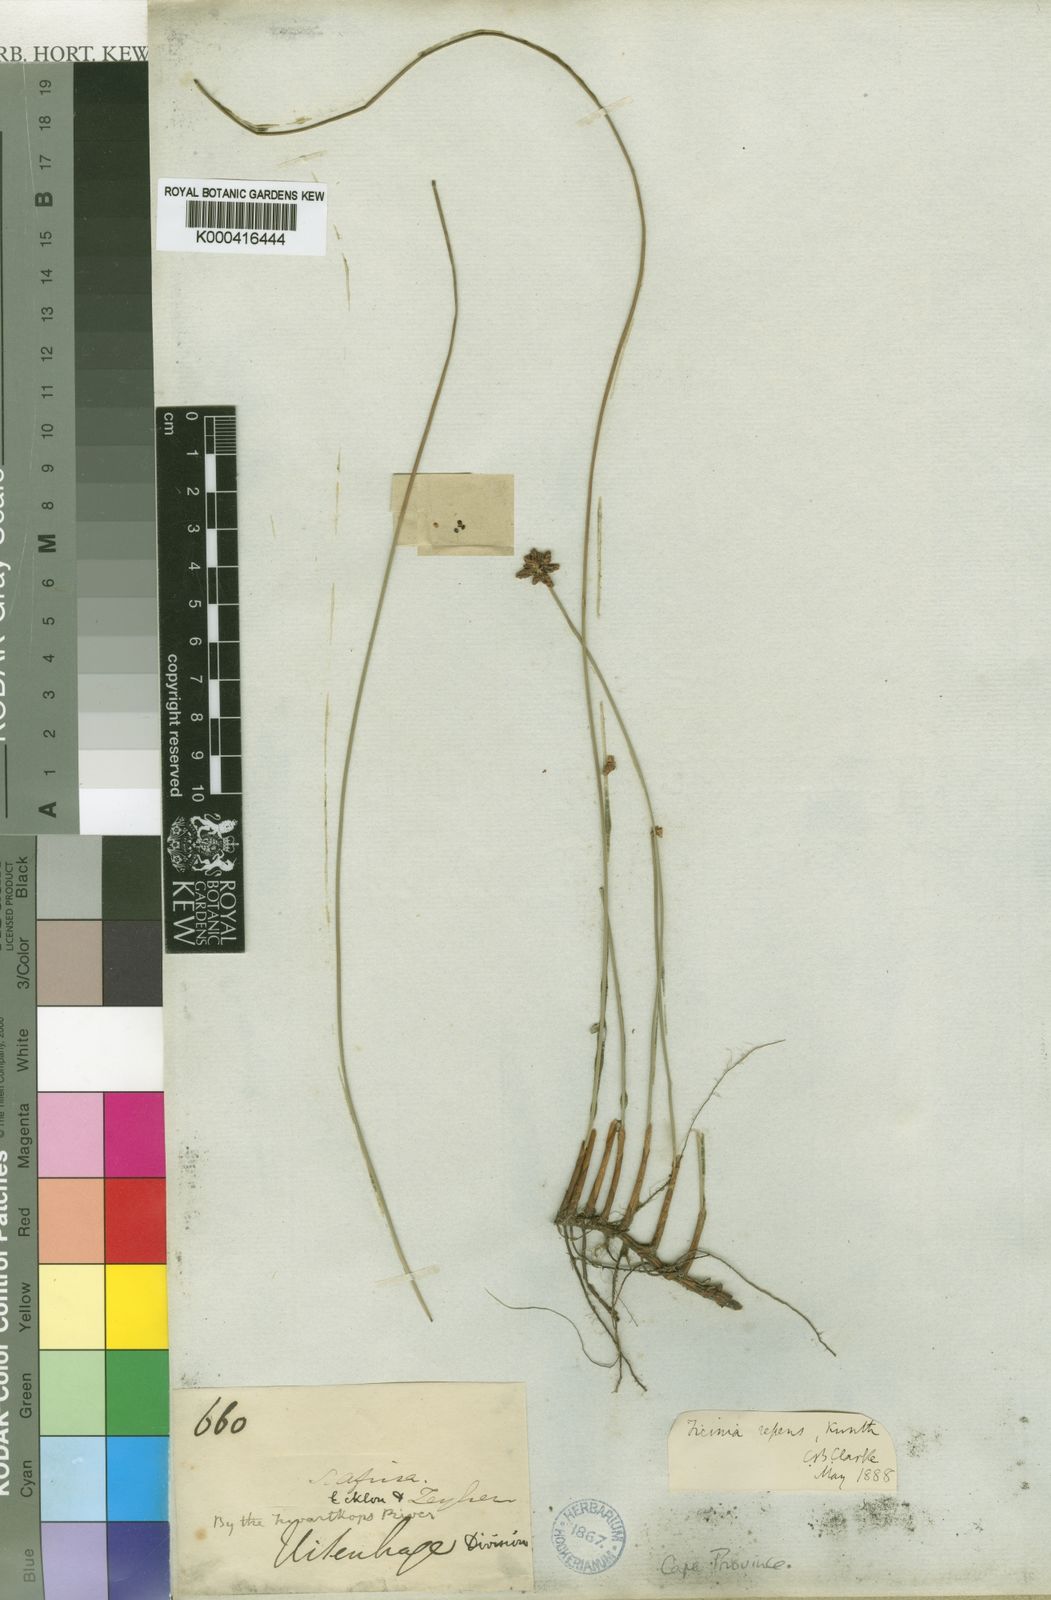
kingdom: Plantae
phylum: Tracheophyta
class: Liliopsida
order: Poales
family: Cyperaceae
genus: Ficinia
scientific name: Ficinia repens
